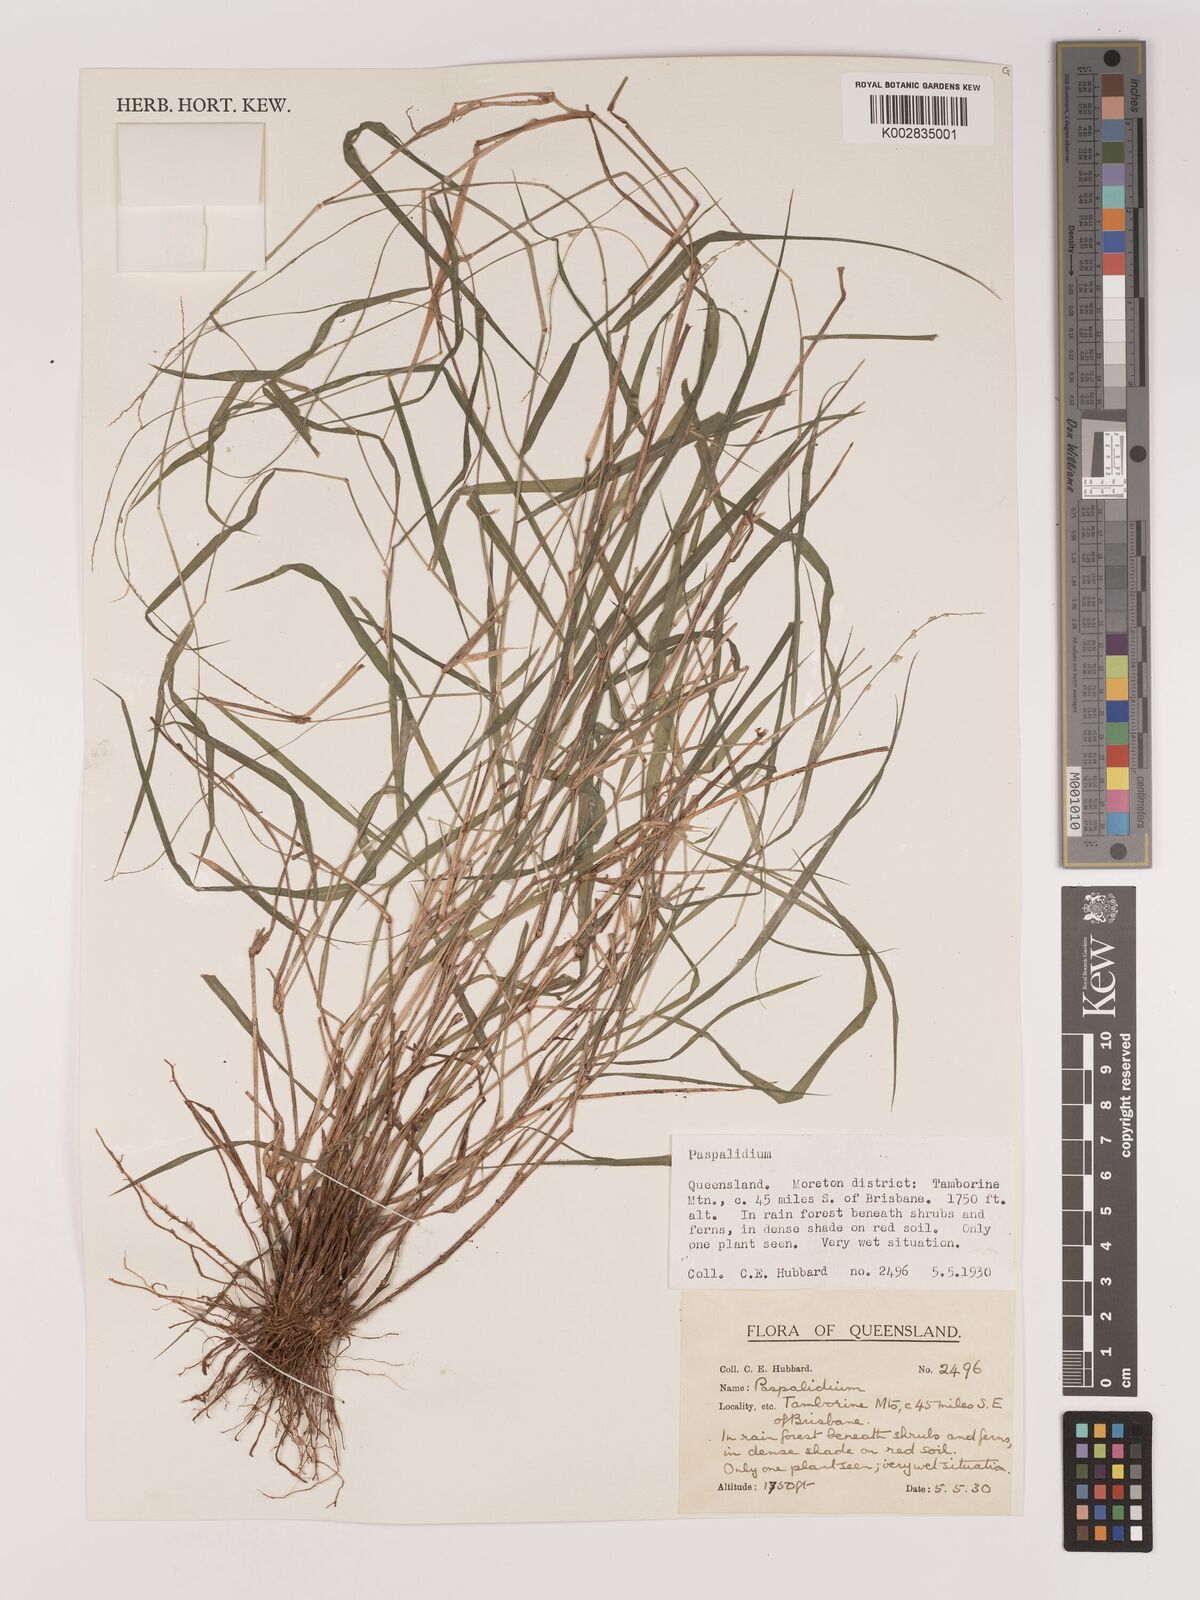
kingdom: Plantae
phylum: Tracheophyta
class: Liliopsida
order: Poales
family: Poaceae
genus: Setaria
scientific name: Setaria
